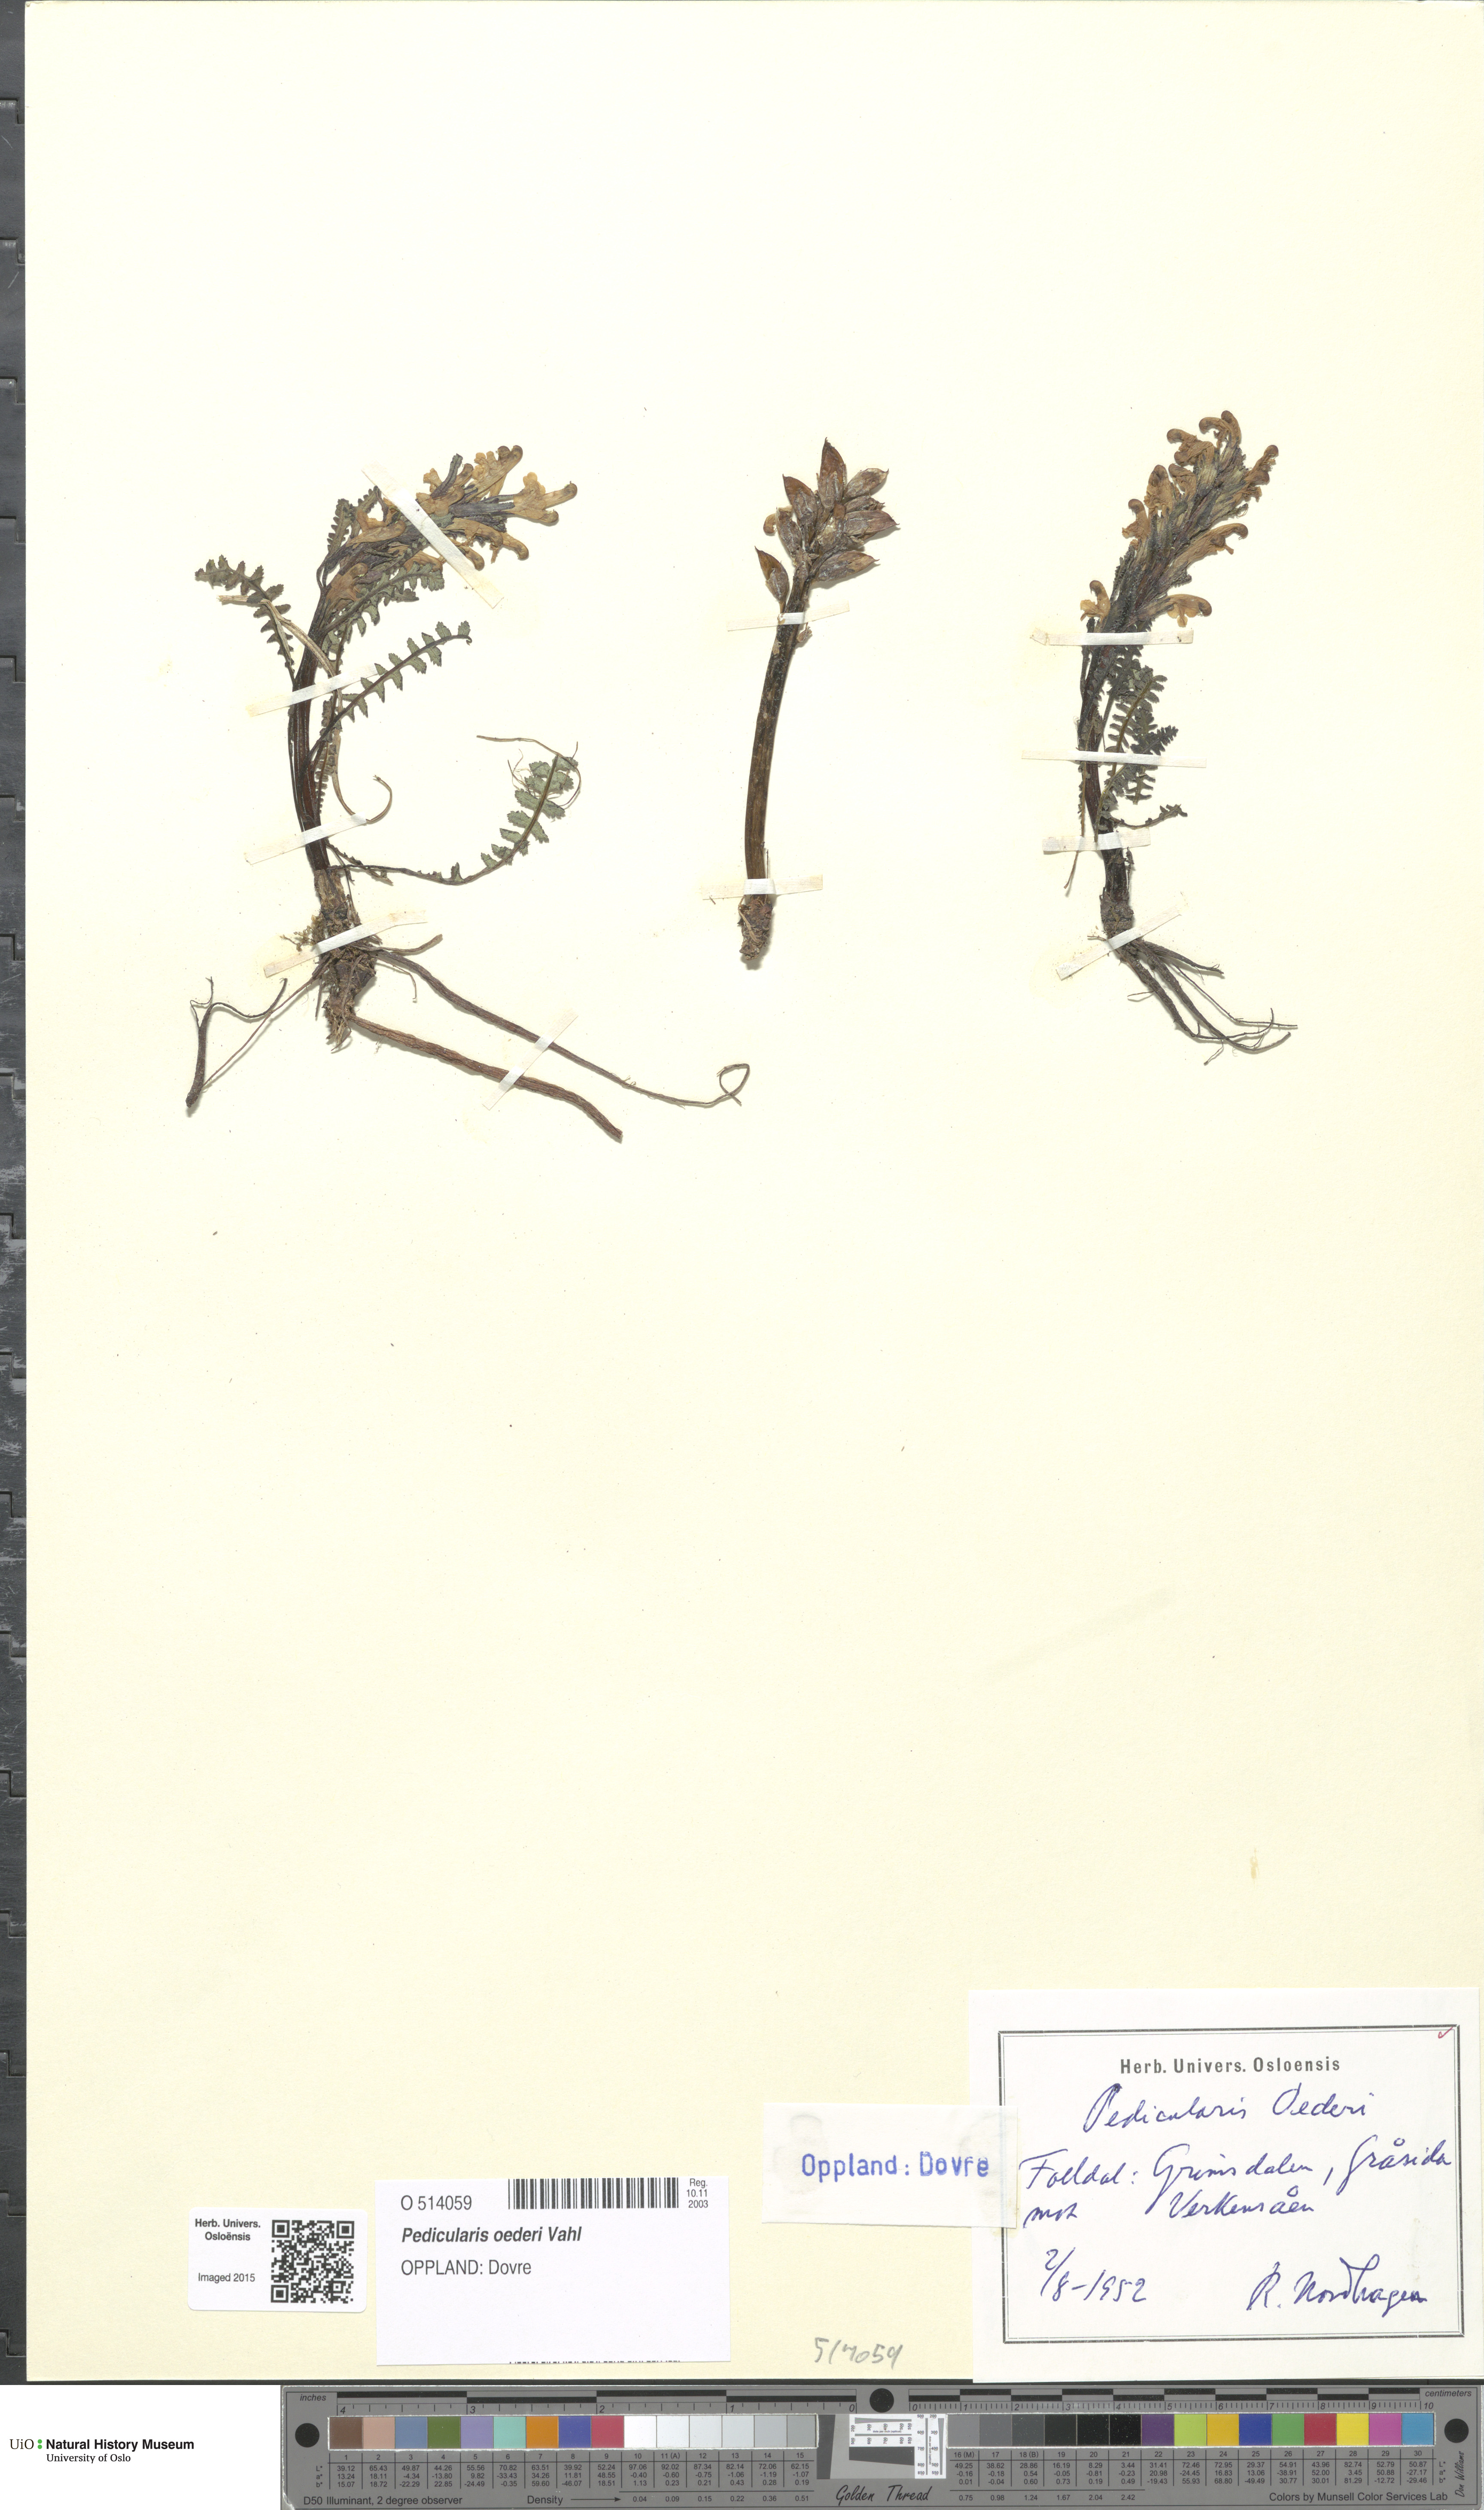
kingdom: Plantae
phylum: Tracheophyta
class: Magnoliopsida
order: Lamiales
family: Orobanchaceae
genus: Pedicularis
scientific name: Pedicularis oederi
